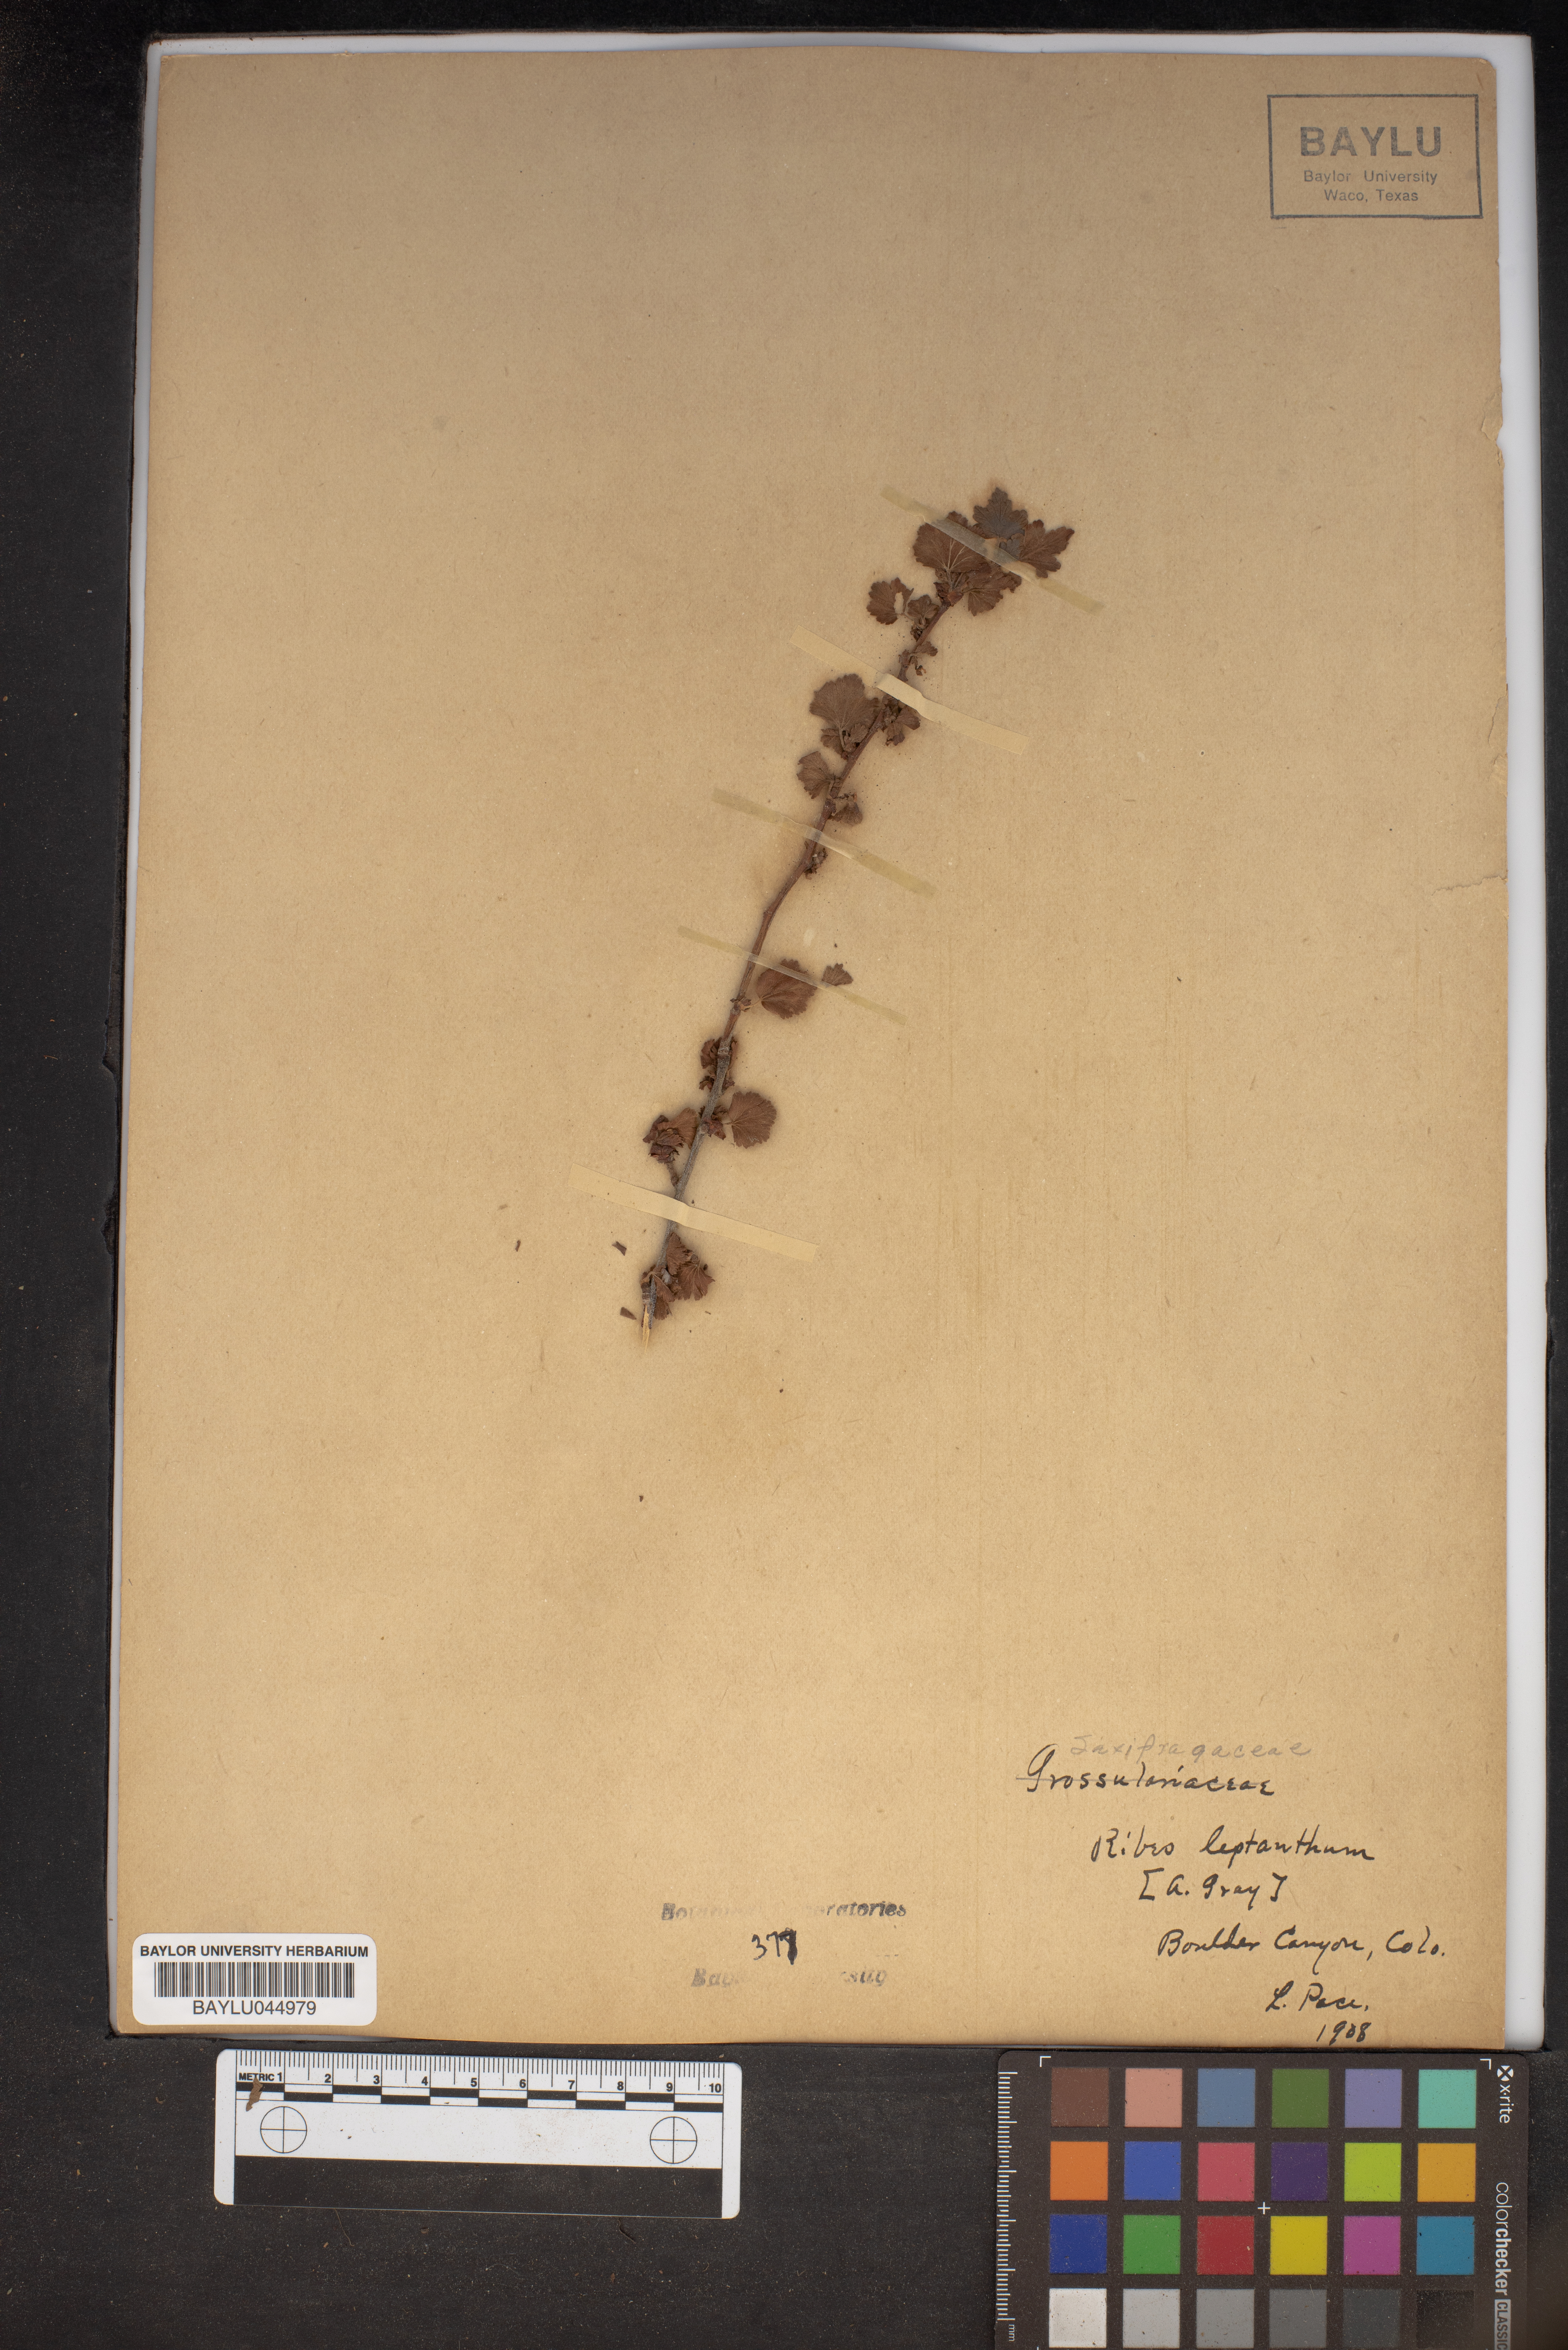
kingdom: Plantae
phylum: Tracheophyta
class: Magnoliopsida
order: Saxifragales
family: Grossulariaceae
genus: Ribes
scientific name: Ribes leptanthum
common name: Trumpet gooseberry
